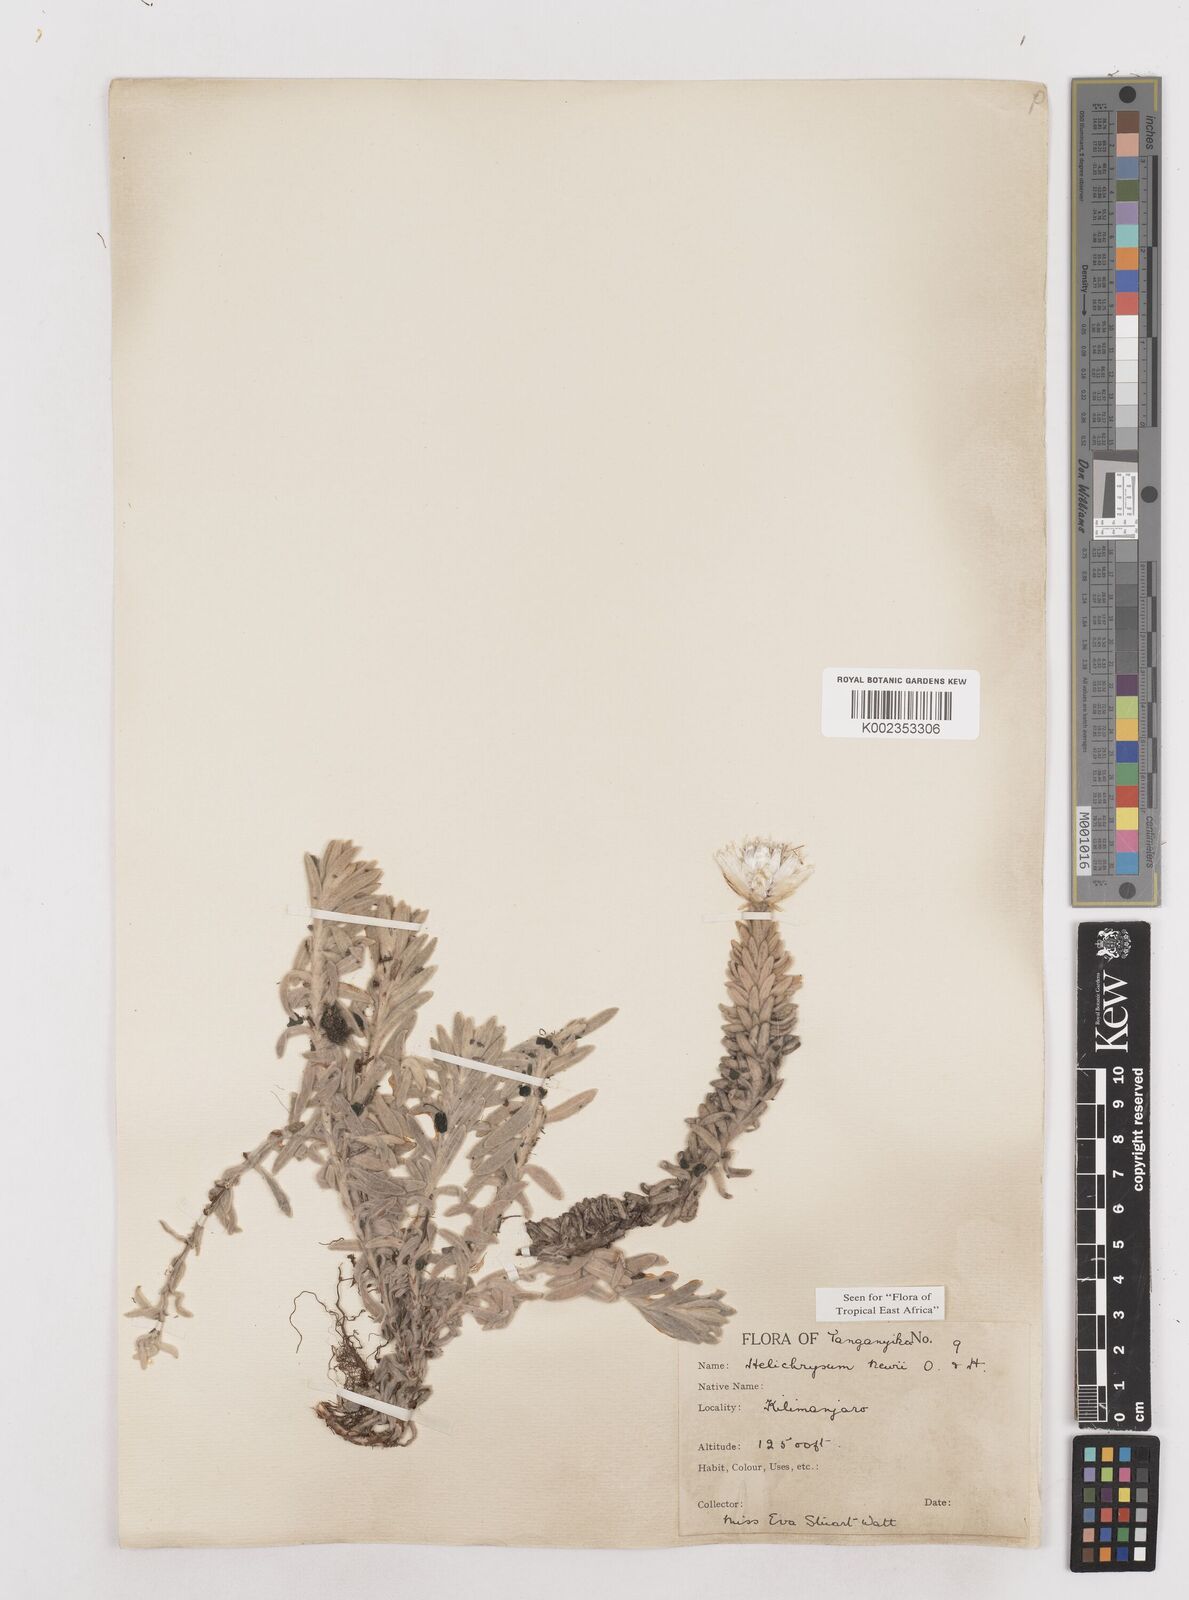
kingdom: Plantae
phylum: Tracheophyta
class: Magnoliopsida
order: Asterales
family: Asteraceae
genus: Helichrysum
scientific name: Helichrysum newii
